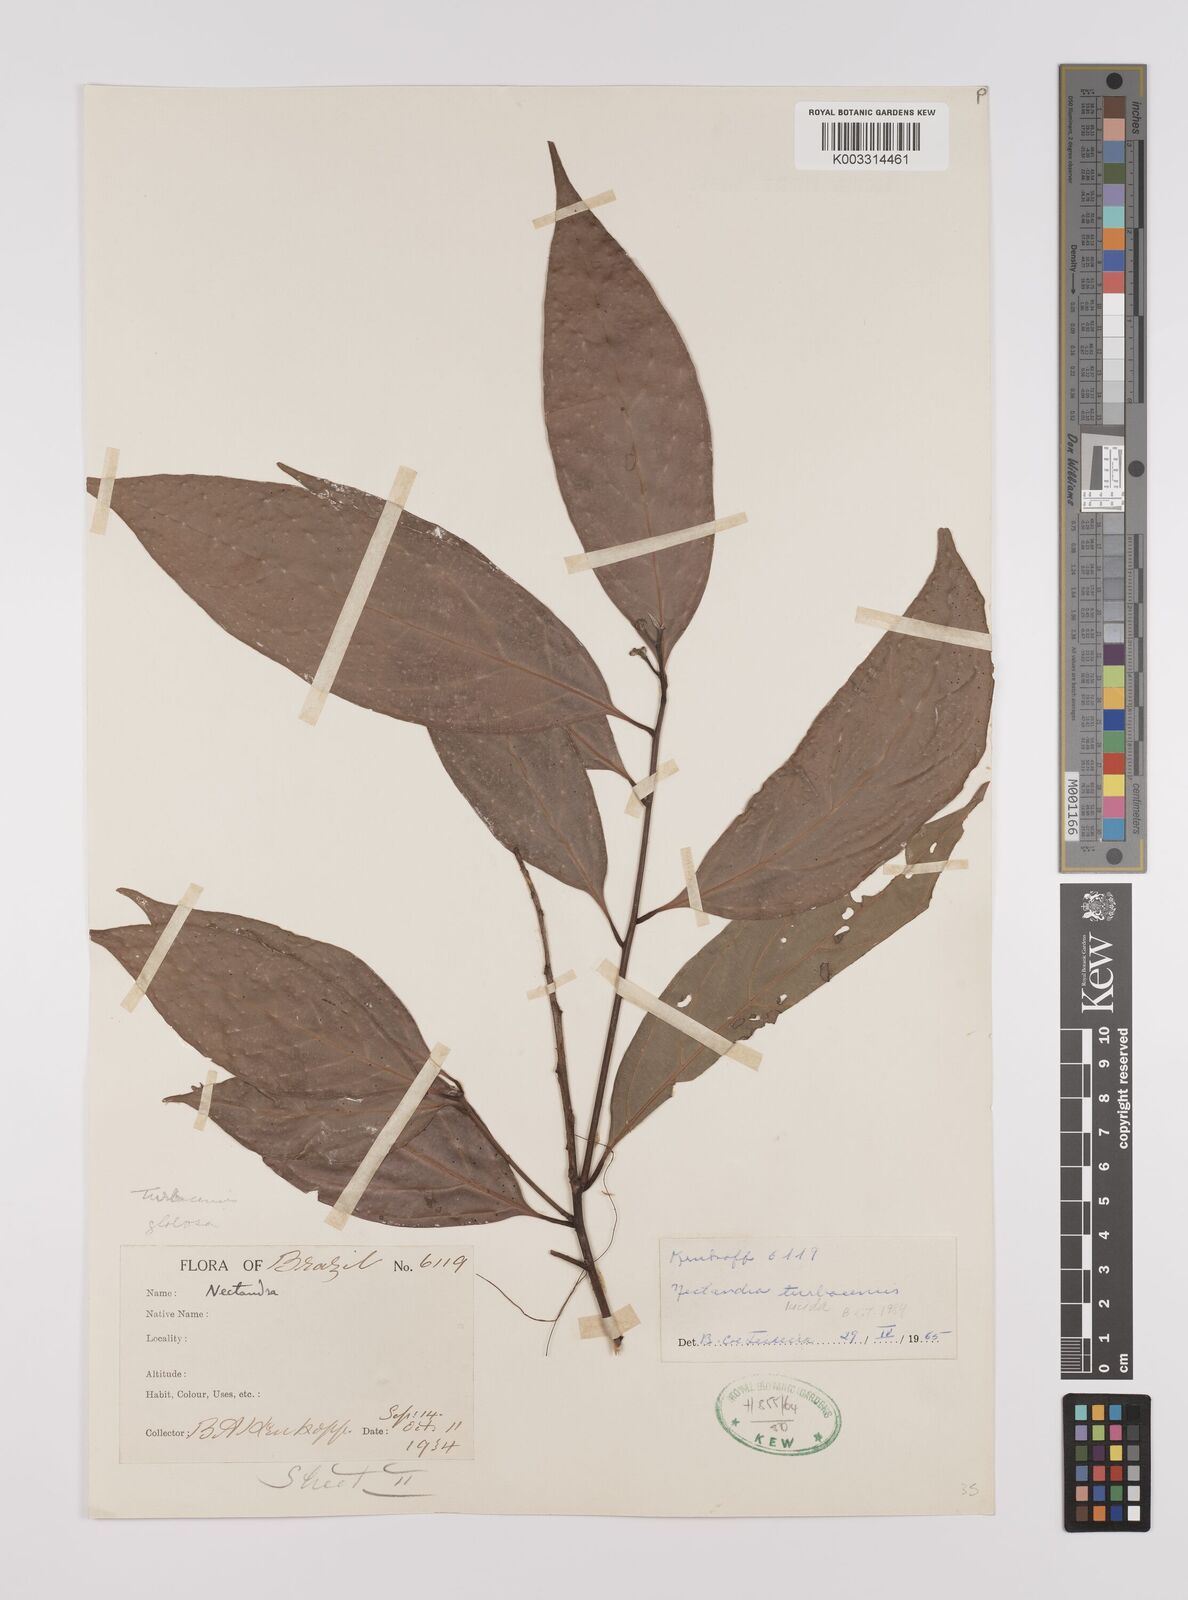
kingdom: Plantae
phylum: Tracheophyta
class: Magnoliopsida
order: Laurales
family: Lauraceae
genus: Endlicheria
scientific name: Endlicheria paniculata
